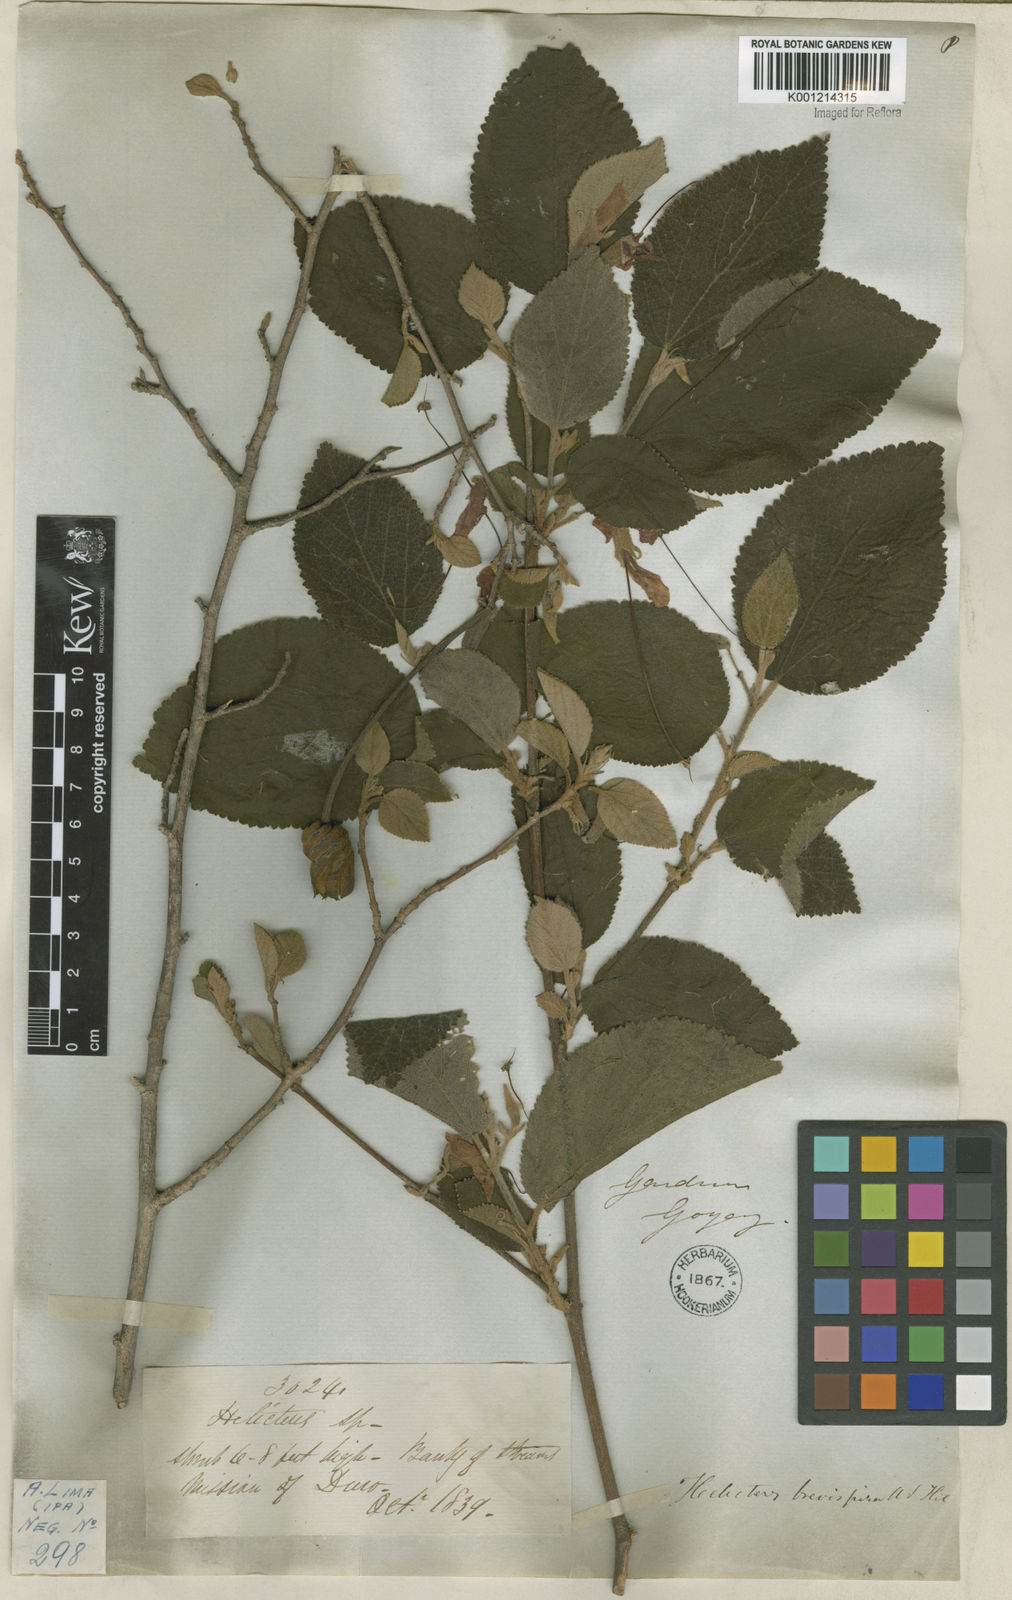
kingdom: Plantae
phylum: Tracheophyta
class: Magnoliopsida
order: Malvales
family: Malvaceae
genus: Helicteres
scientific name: Helicteres
